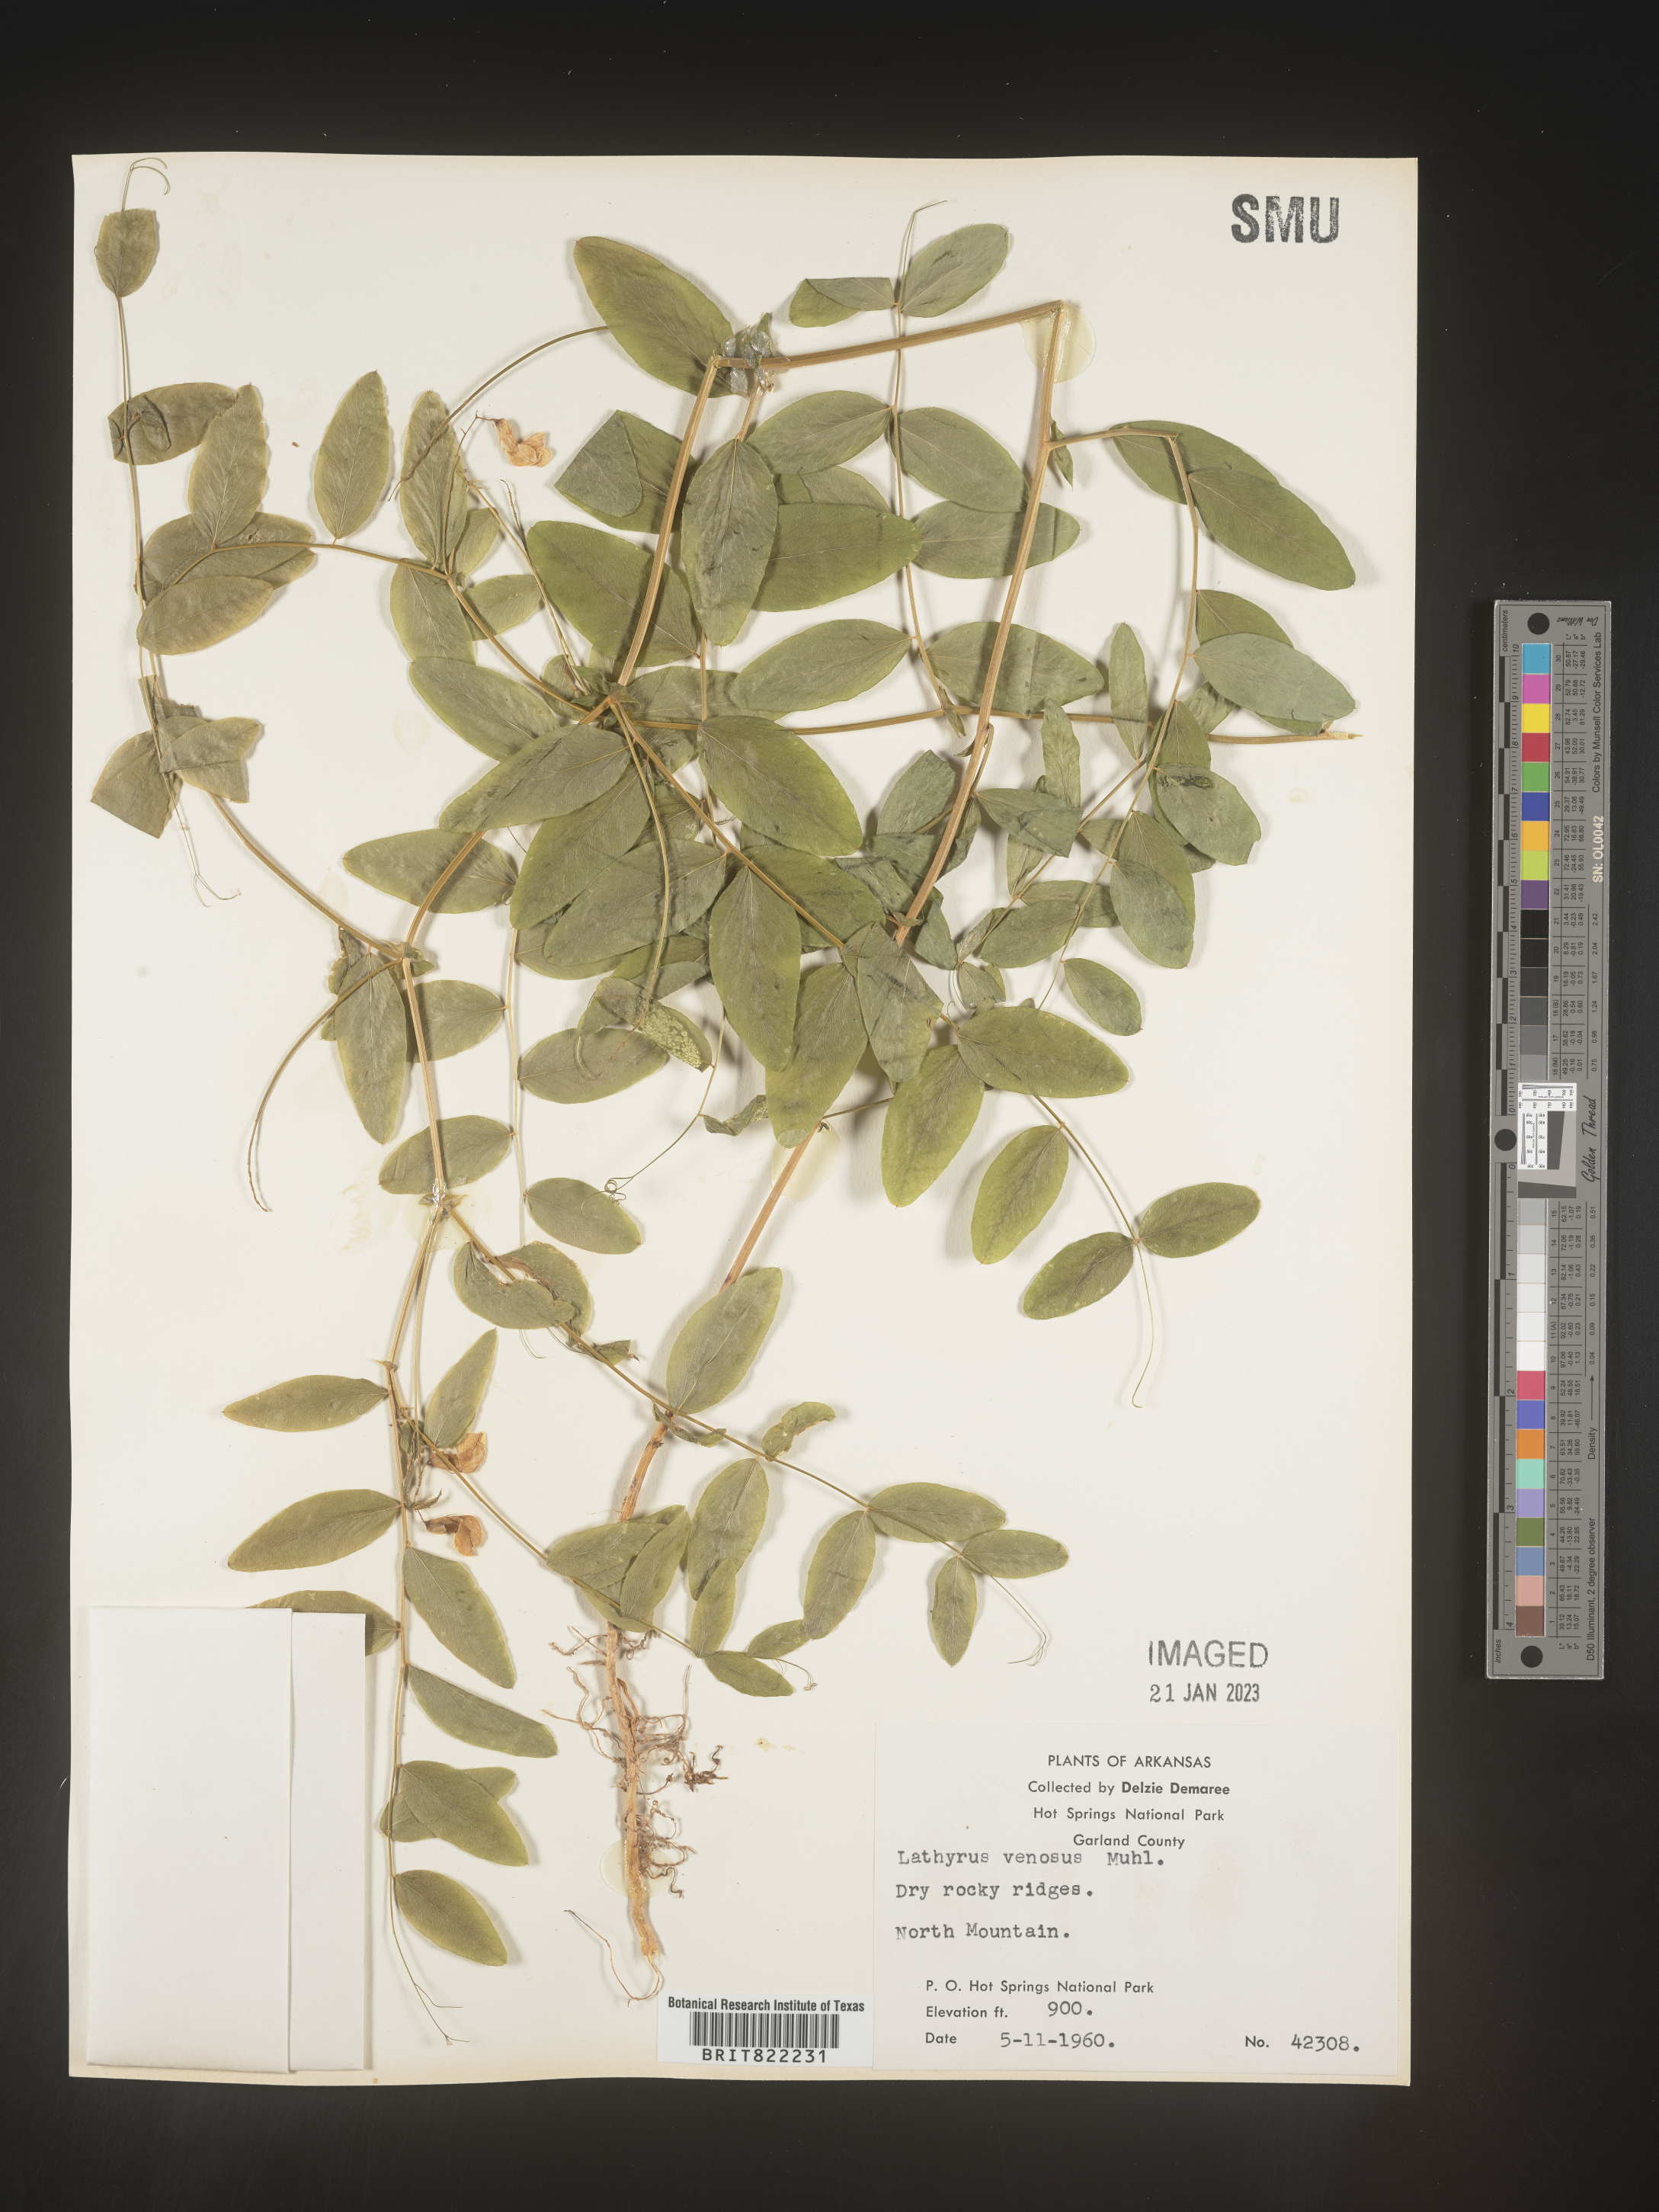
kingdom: Plantae
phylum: Tracheophyta
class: Magnoliopsida
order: Fabales
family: Fabaceae
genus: Lathyrus
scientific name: Lathyrus venosus
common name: Forest-pea
